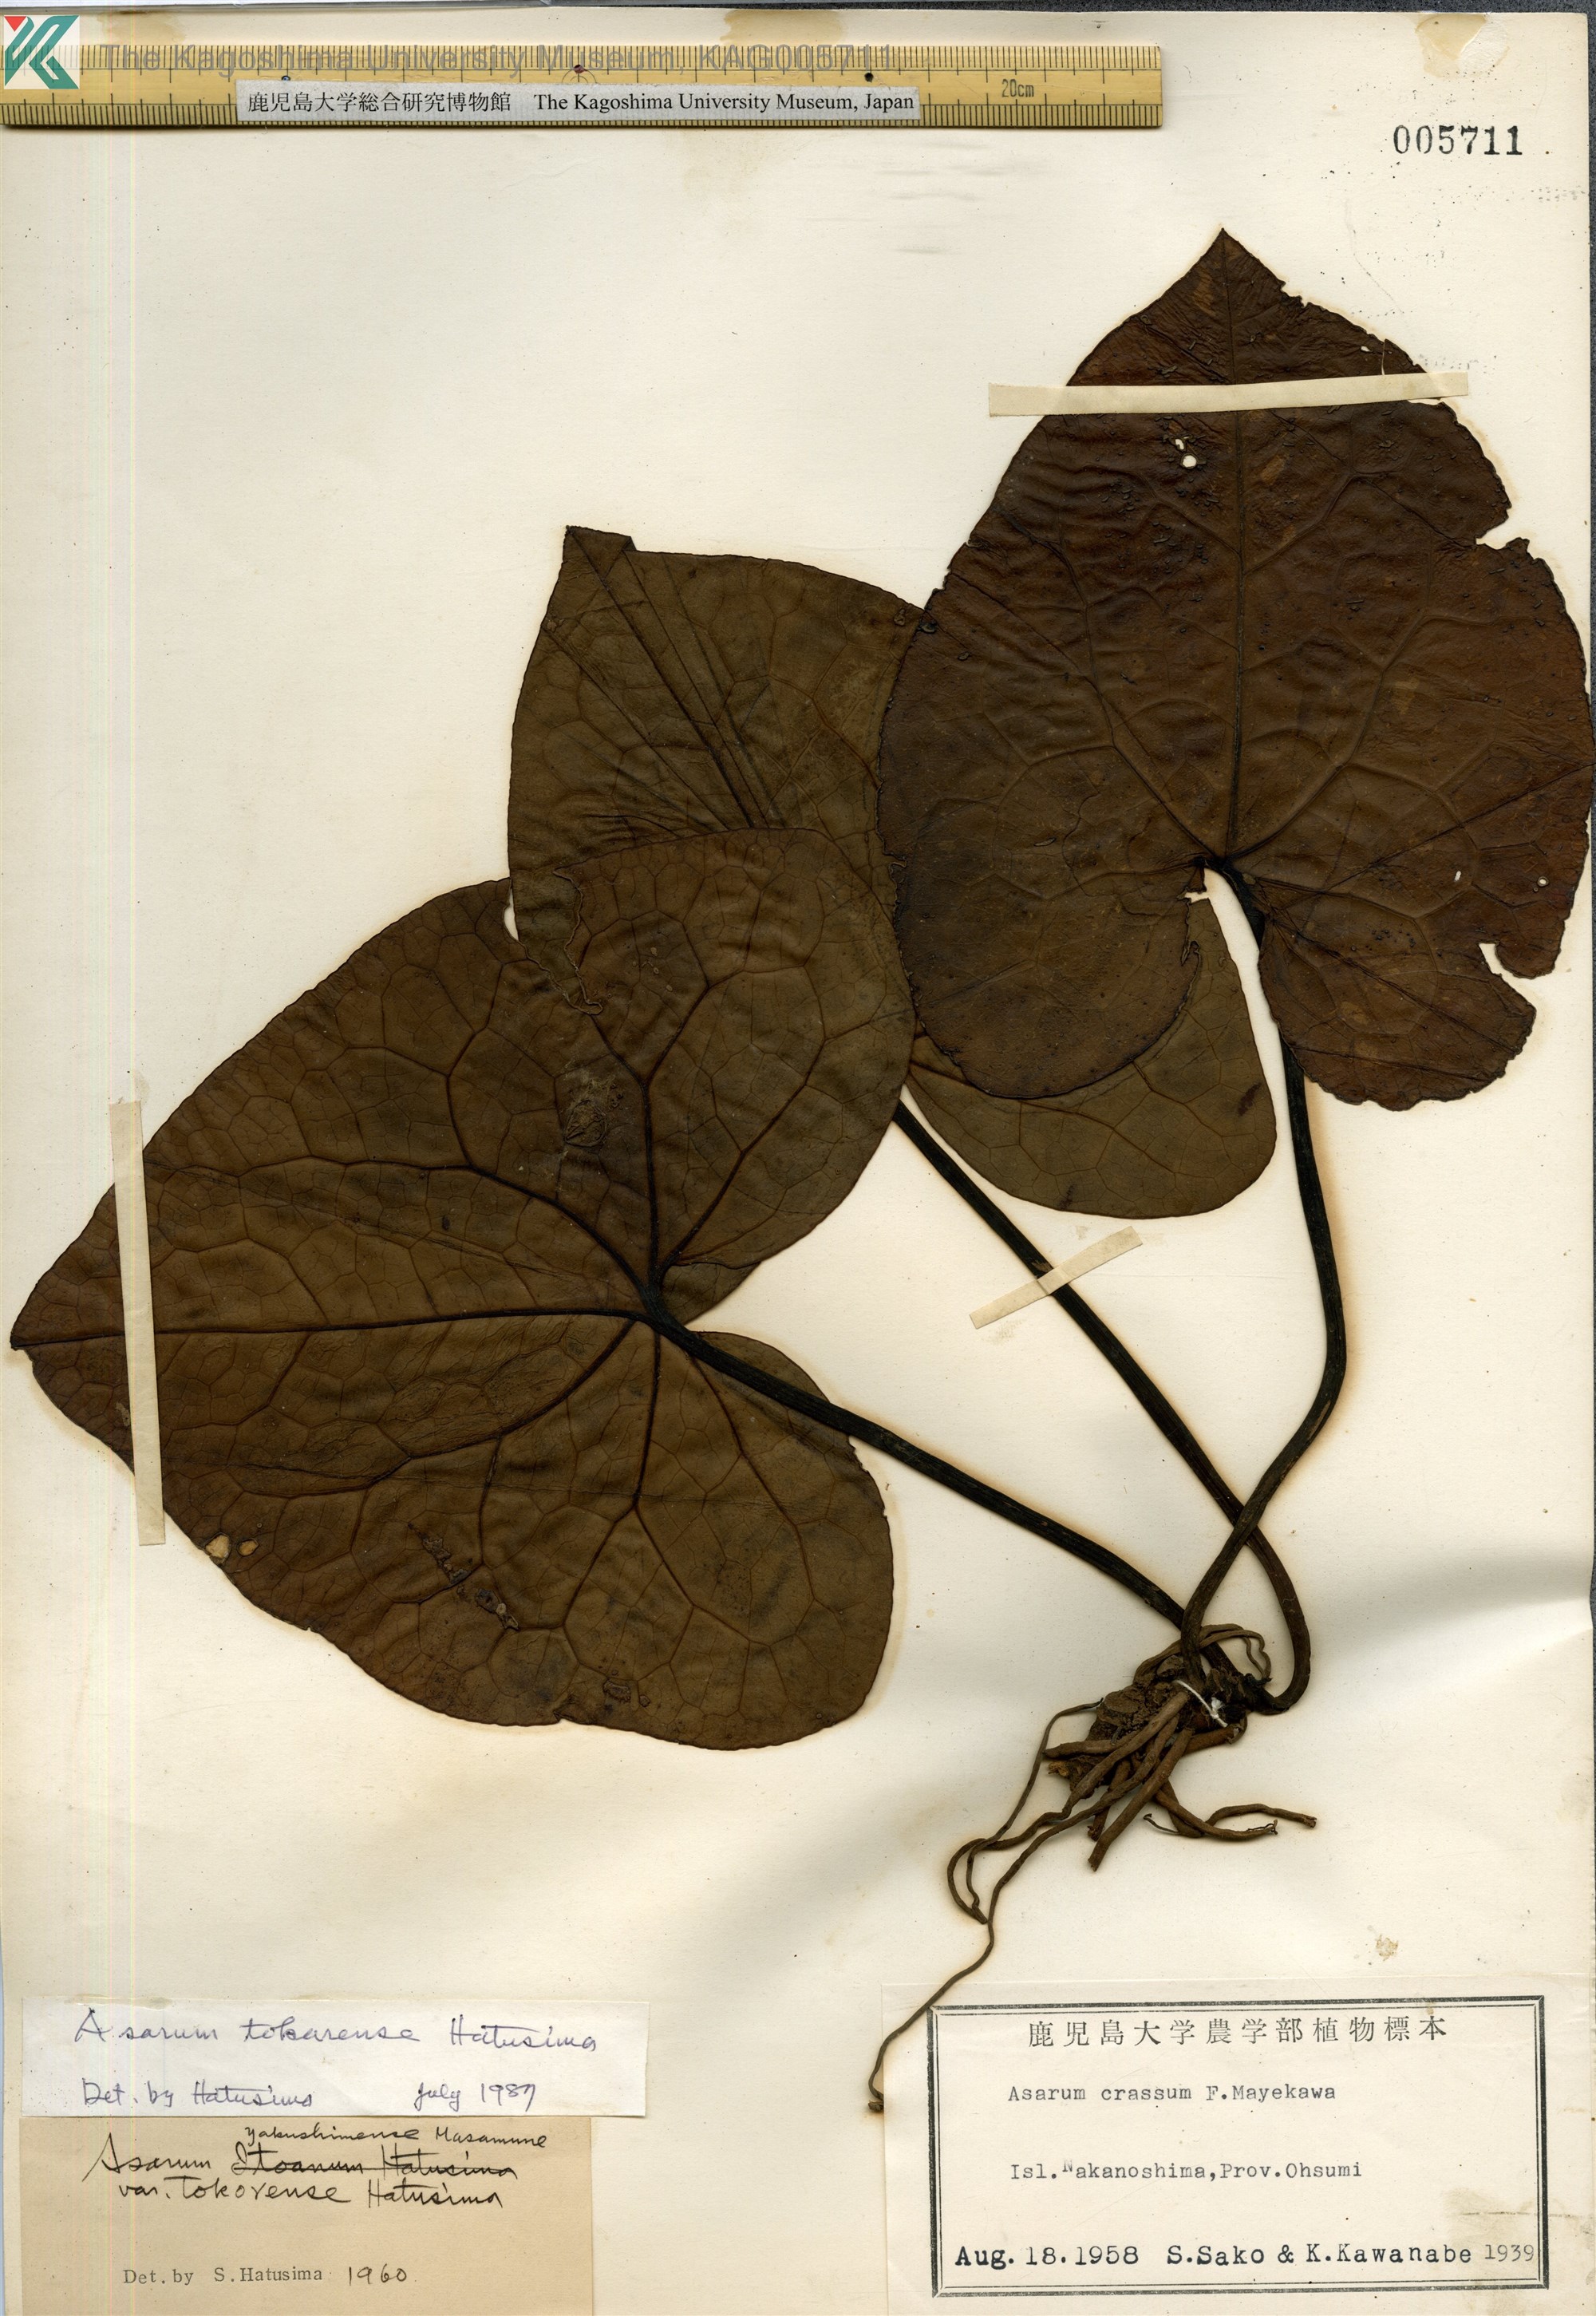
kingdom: Plantae
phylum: Tracheophyta
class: Magnoliopsida
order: Piperales
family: Aristolochiaceae
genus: Asarum
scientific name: Asarum tokarense
